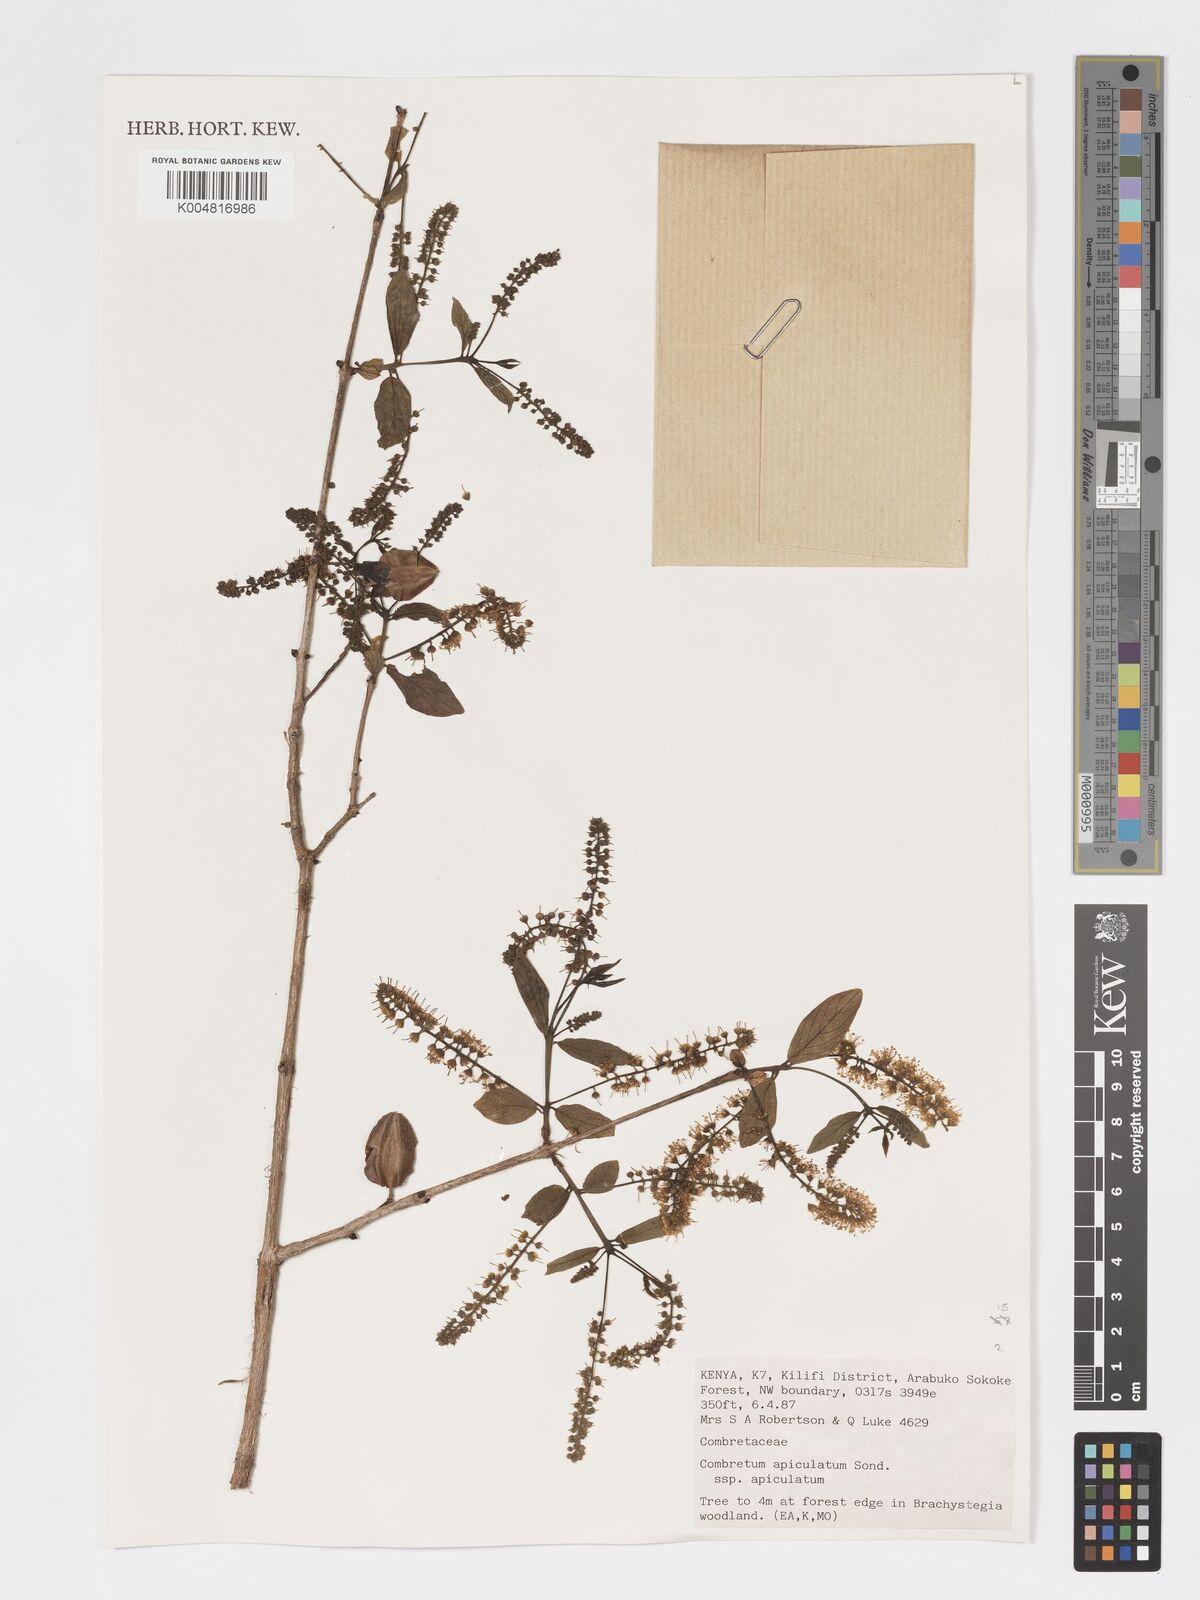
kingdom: Plantae
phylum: Tracheophyta
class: Magnoliopsida
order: Myrtales
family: Combretaceae
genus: Combretum
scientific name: Combretum apiculatum
